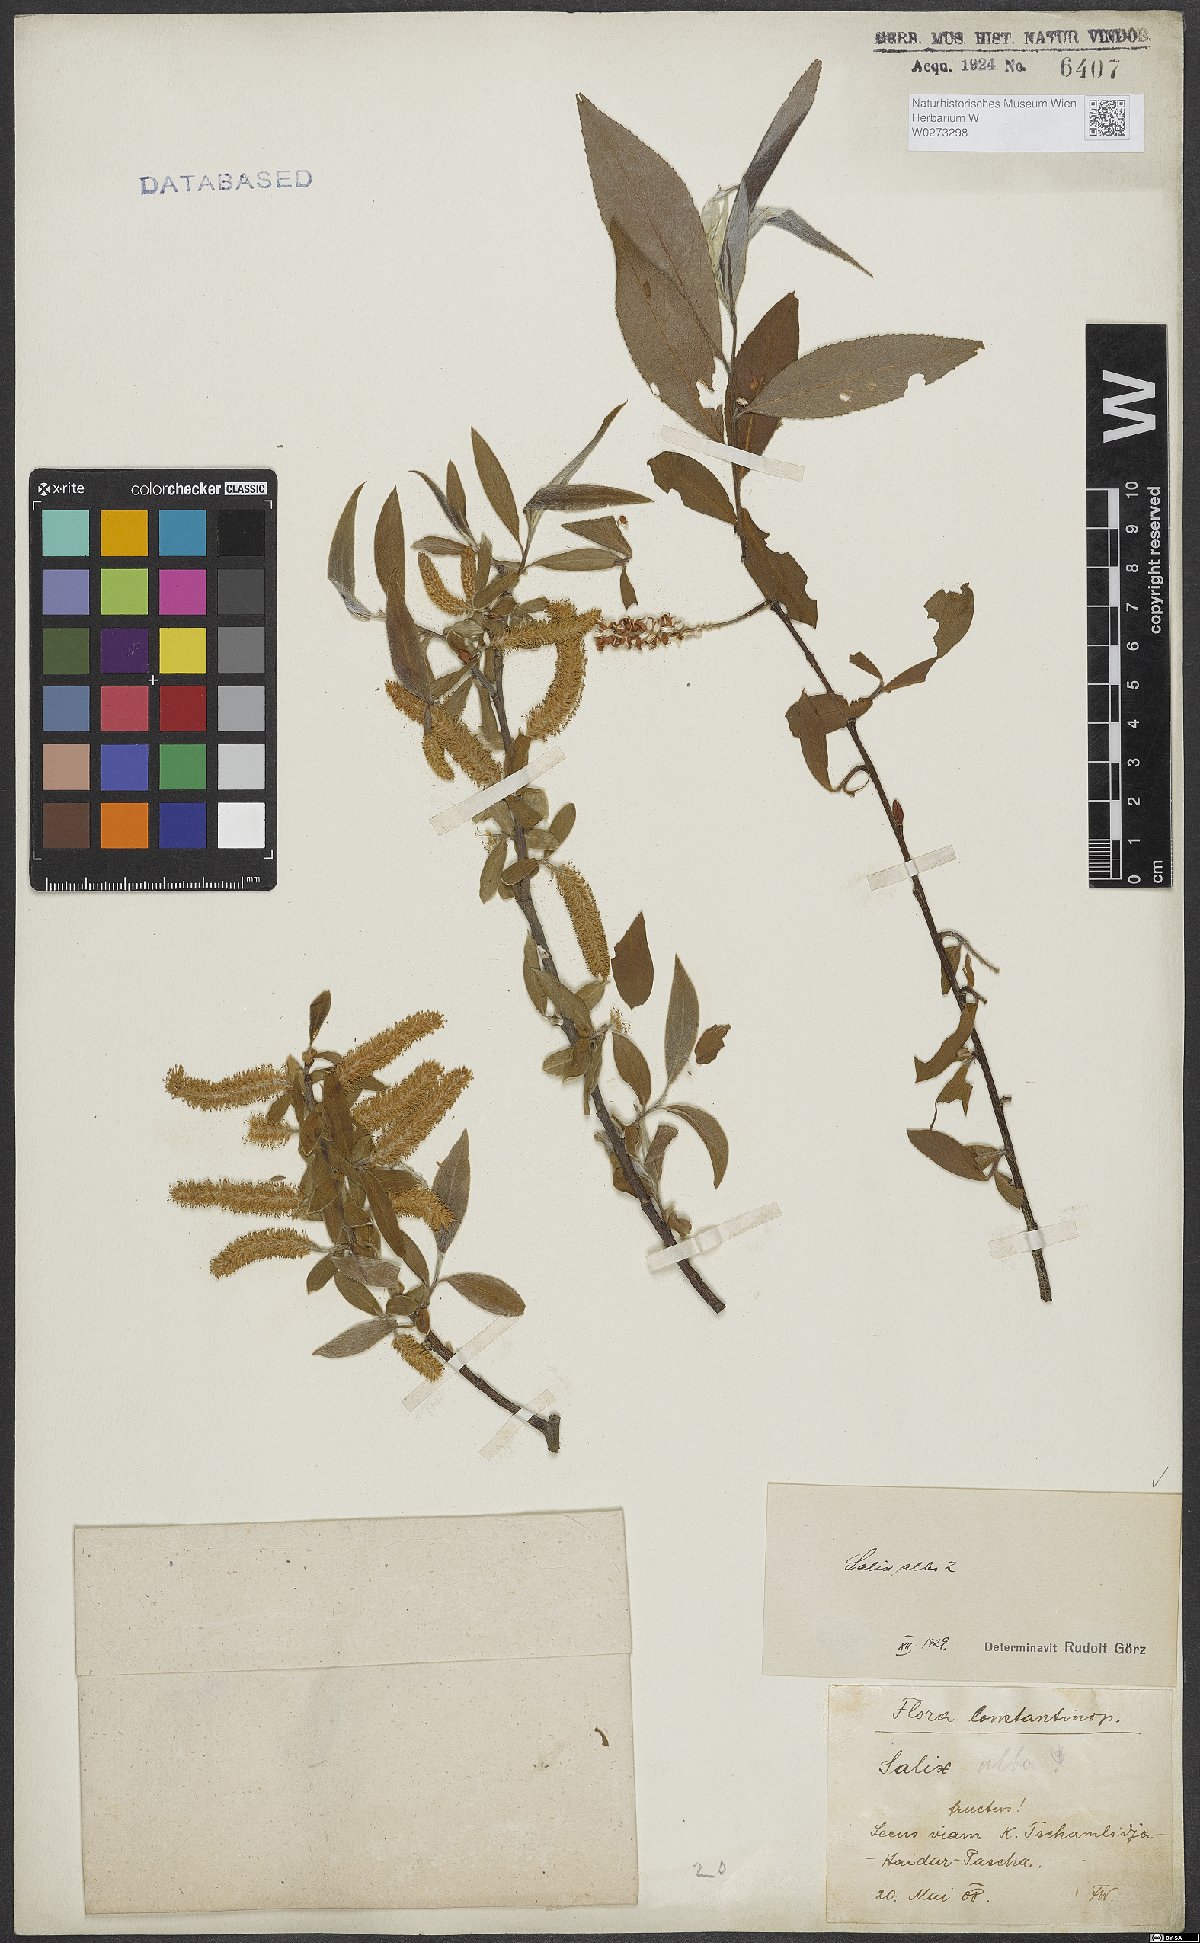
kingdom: Plantae
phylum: Tracheophyta
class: Magnoliopsida
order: Malpighiales
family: Salicaceae
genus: Salix
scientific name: Salix alba
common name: White willow
